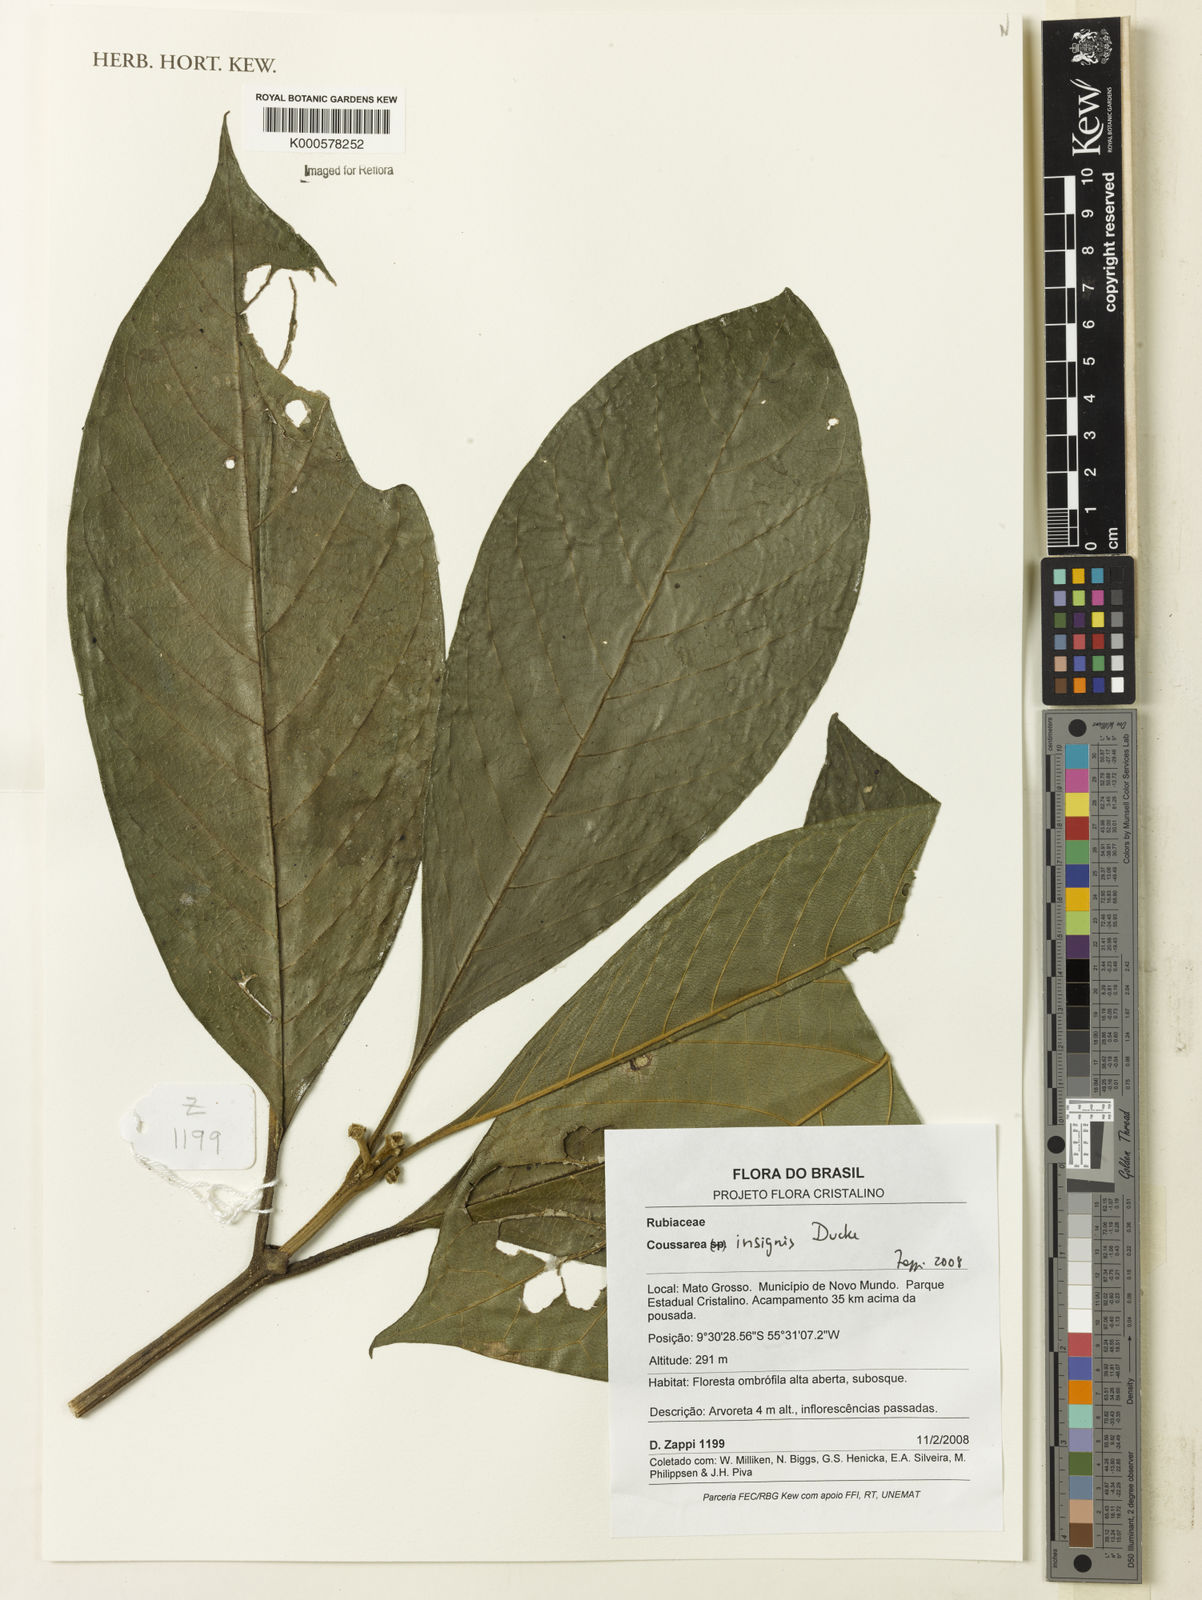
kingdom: Plantae
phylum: Tracheophyta
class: Magnoliopsida
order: Gentianales
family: Rubiaceae
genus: Coussarea
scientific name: Coussarea insignis
